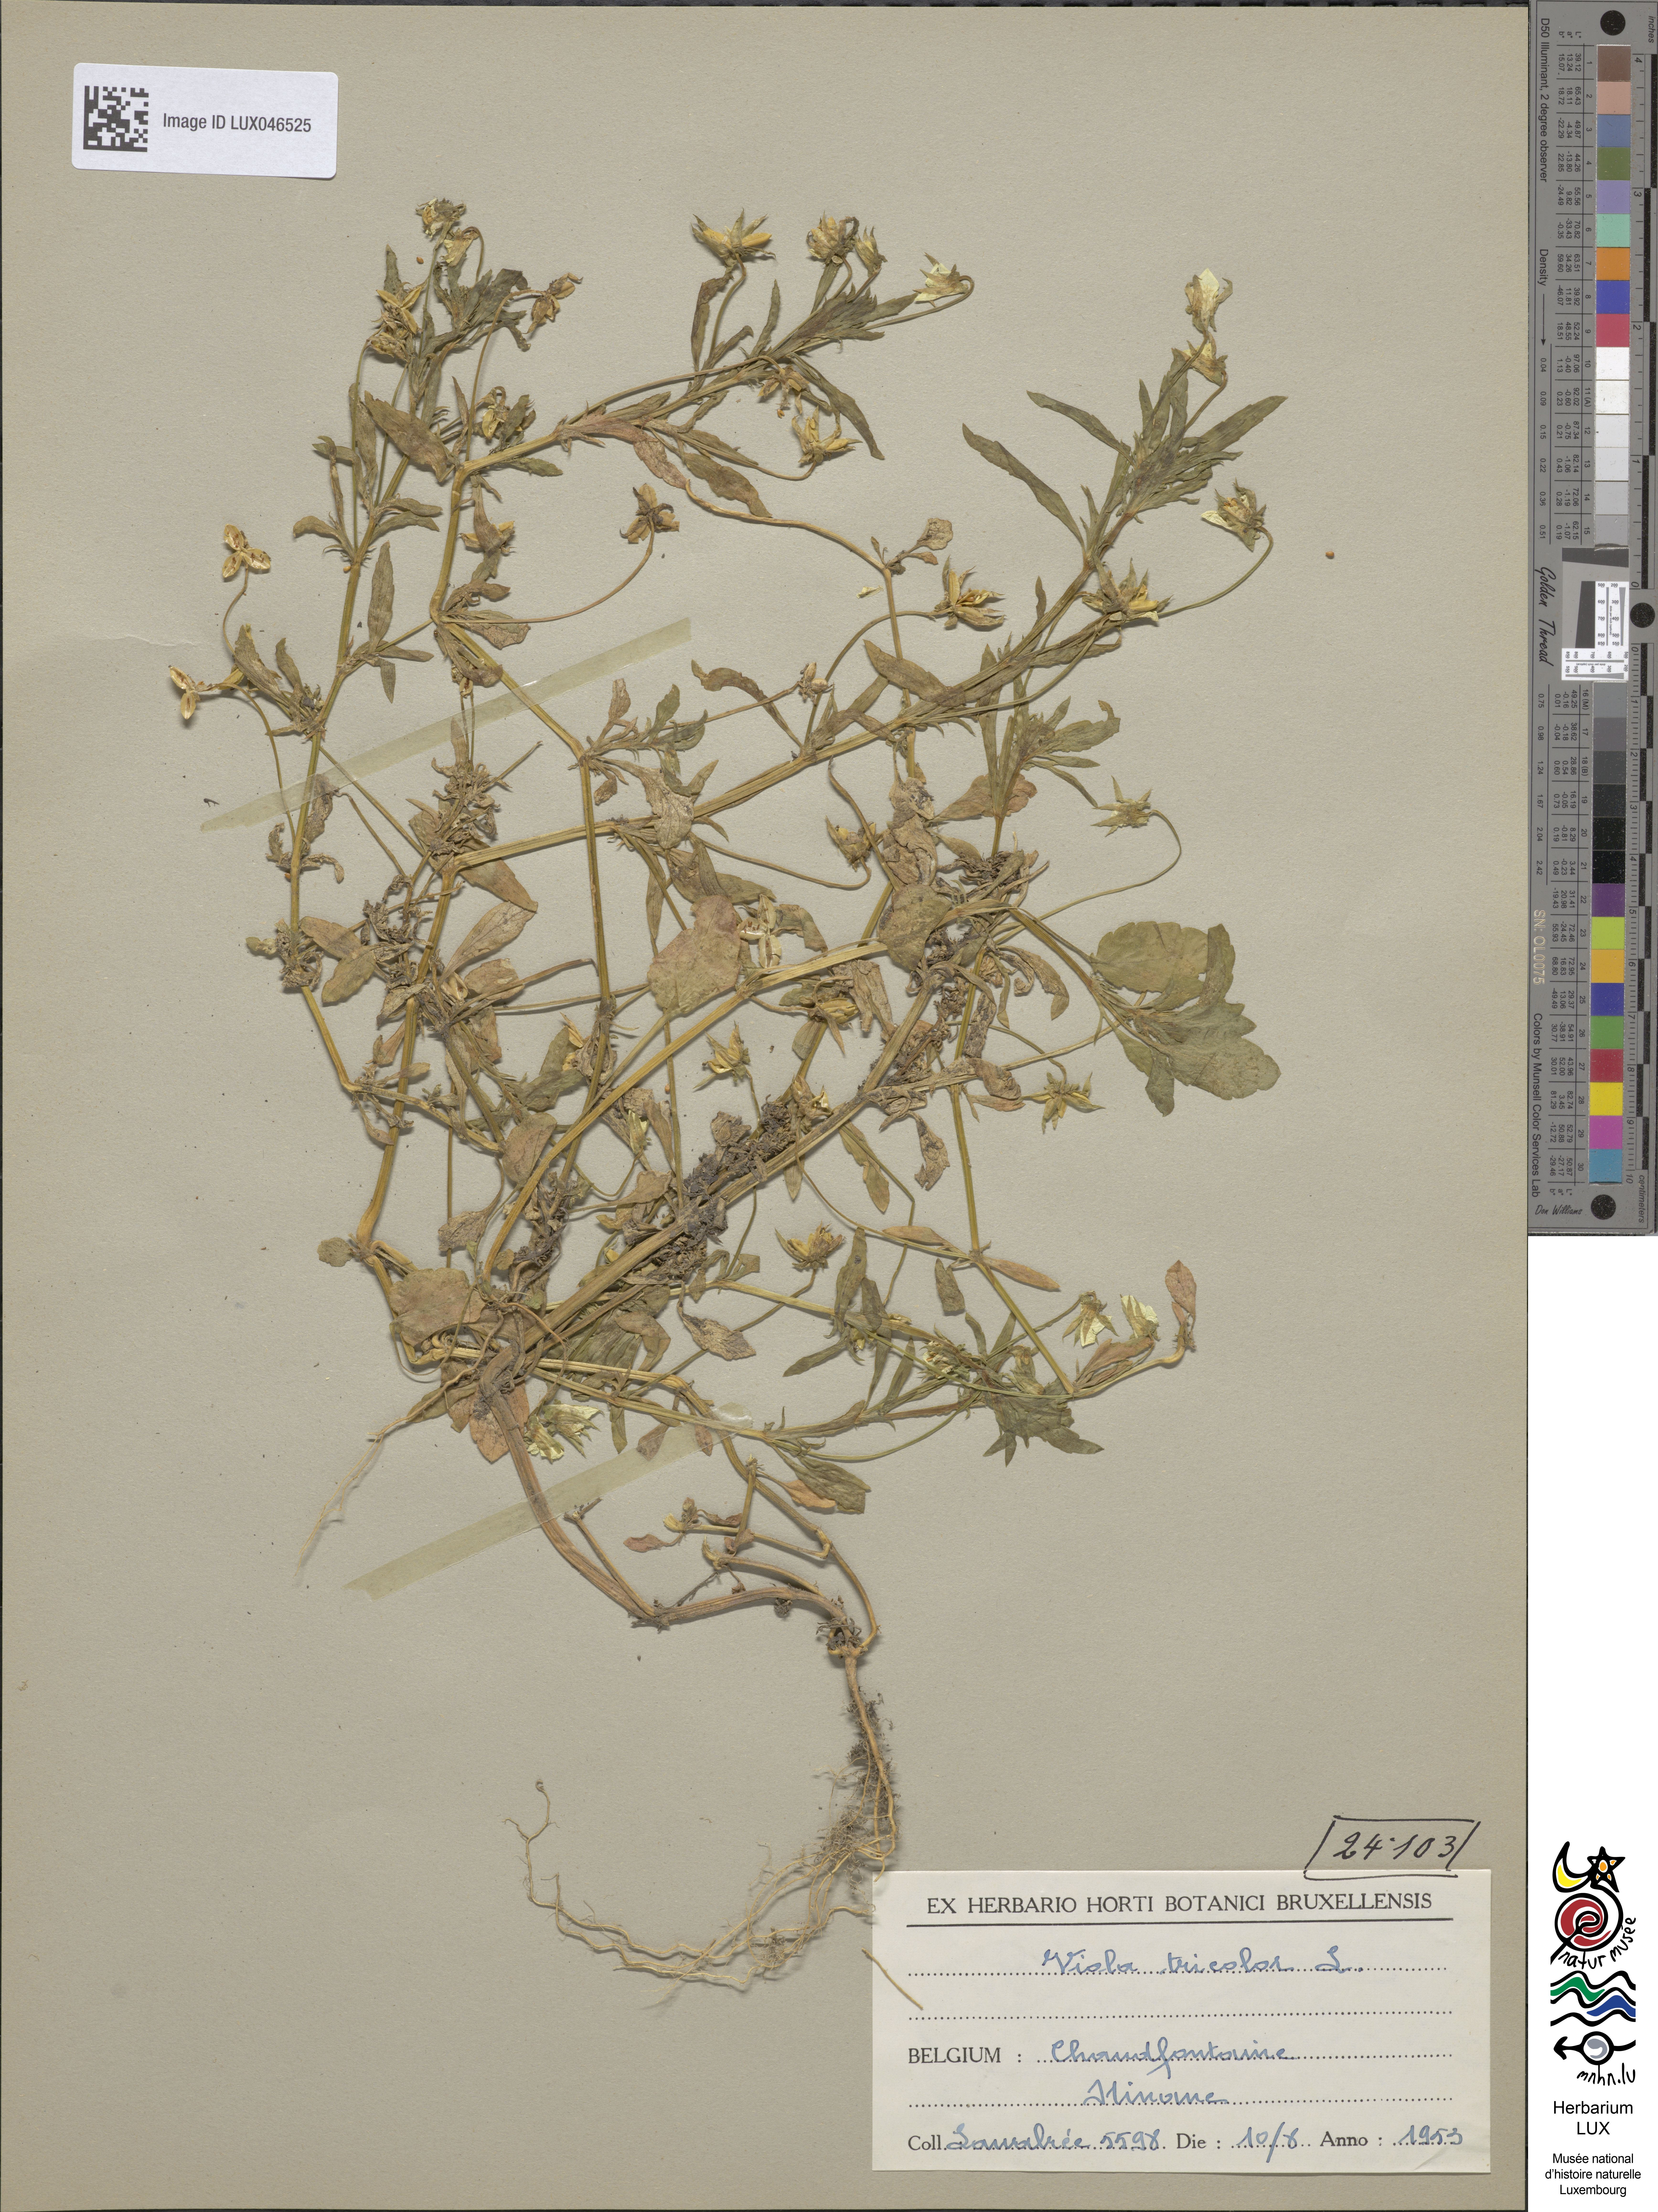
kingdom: Plantae
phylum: Tracheophyta
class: Magnoliopsida
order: Malpighiales
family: Violaceae
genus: Viola
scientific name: Viola tricolor
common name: Pansy
